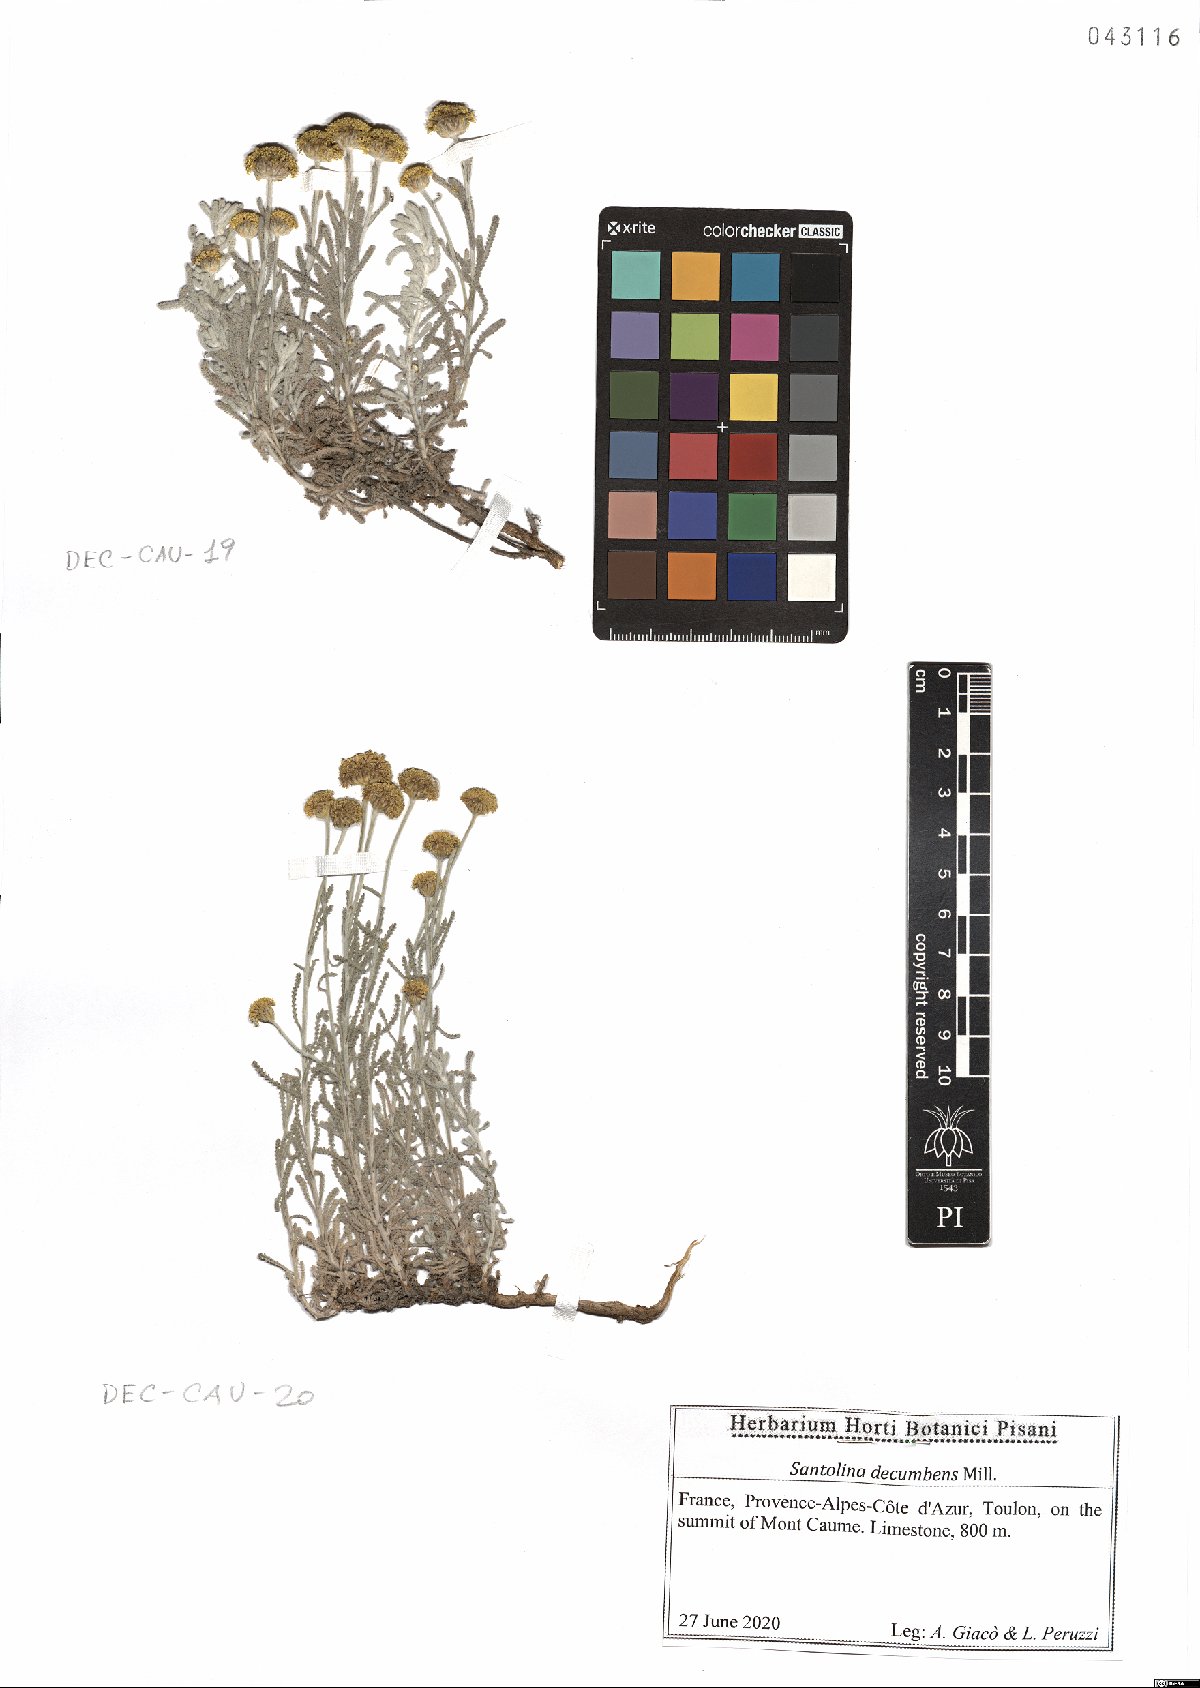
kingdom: Plantae
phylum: Tracheophyta
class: Magnoliopsida
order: Asterales
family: Asteraceae
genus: Santolina
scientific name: Santolina decumbens
